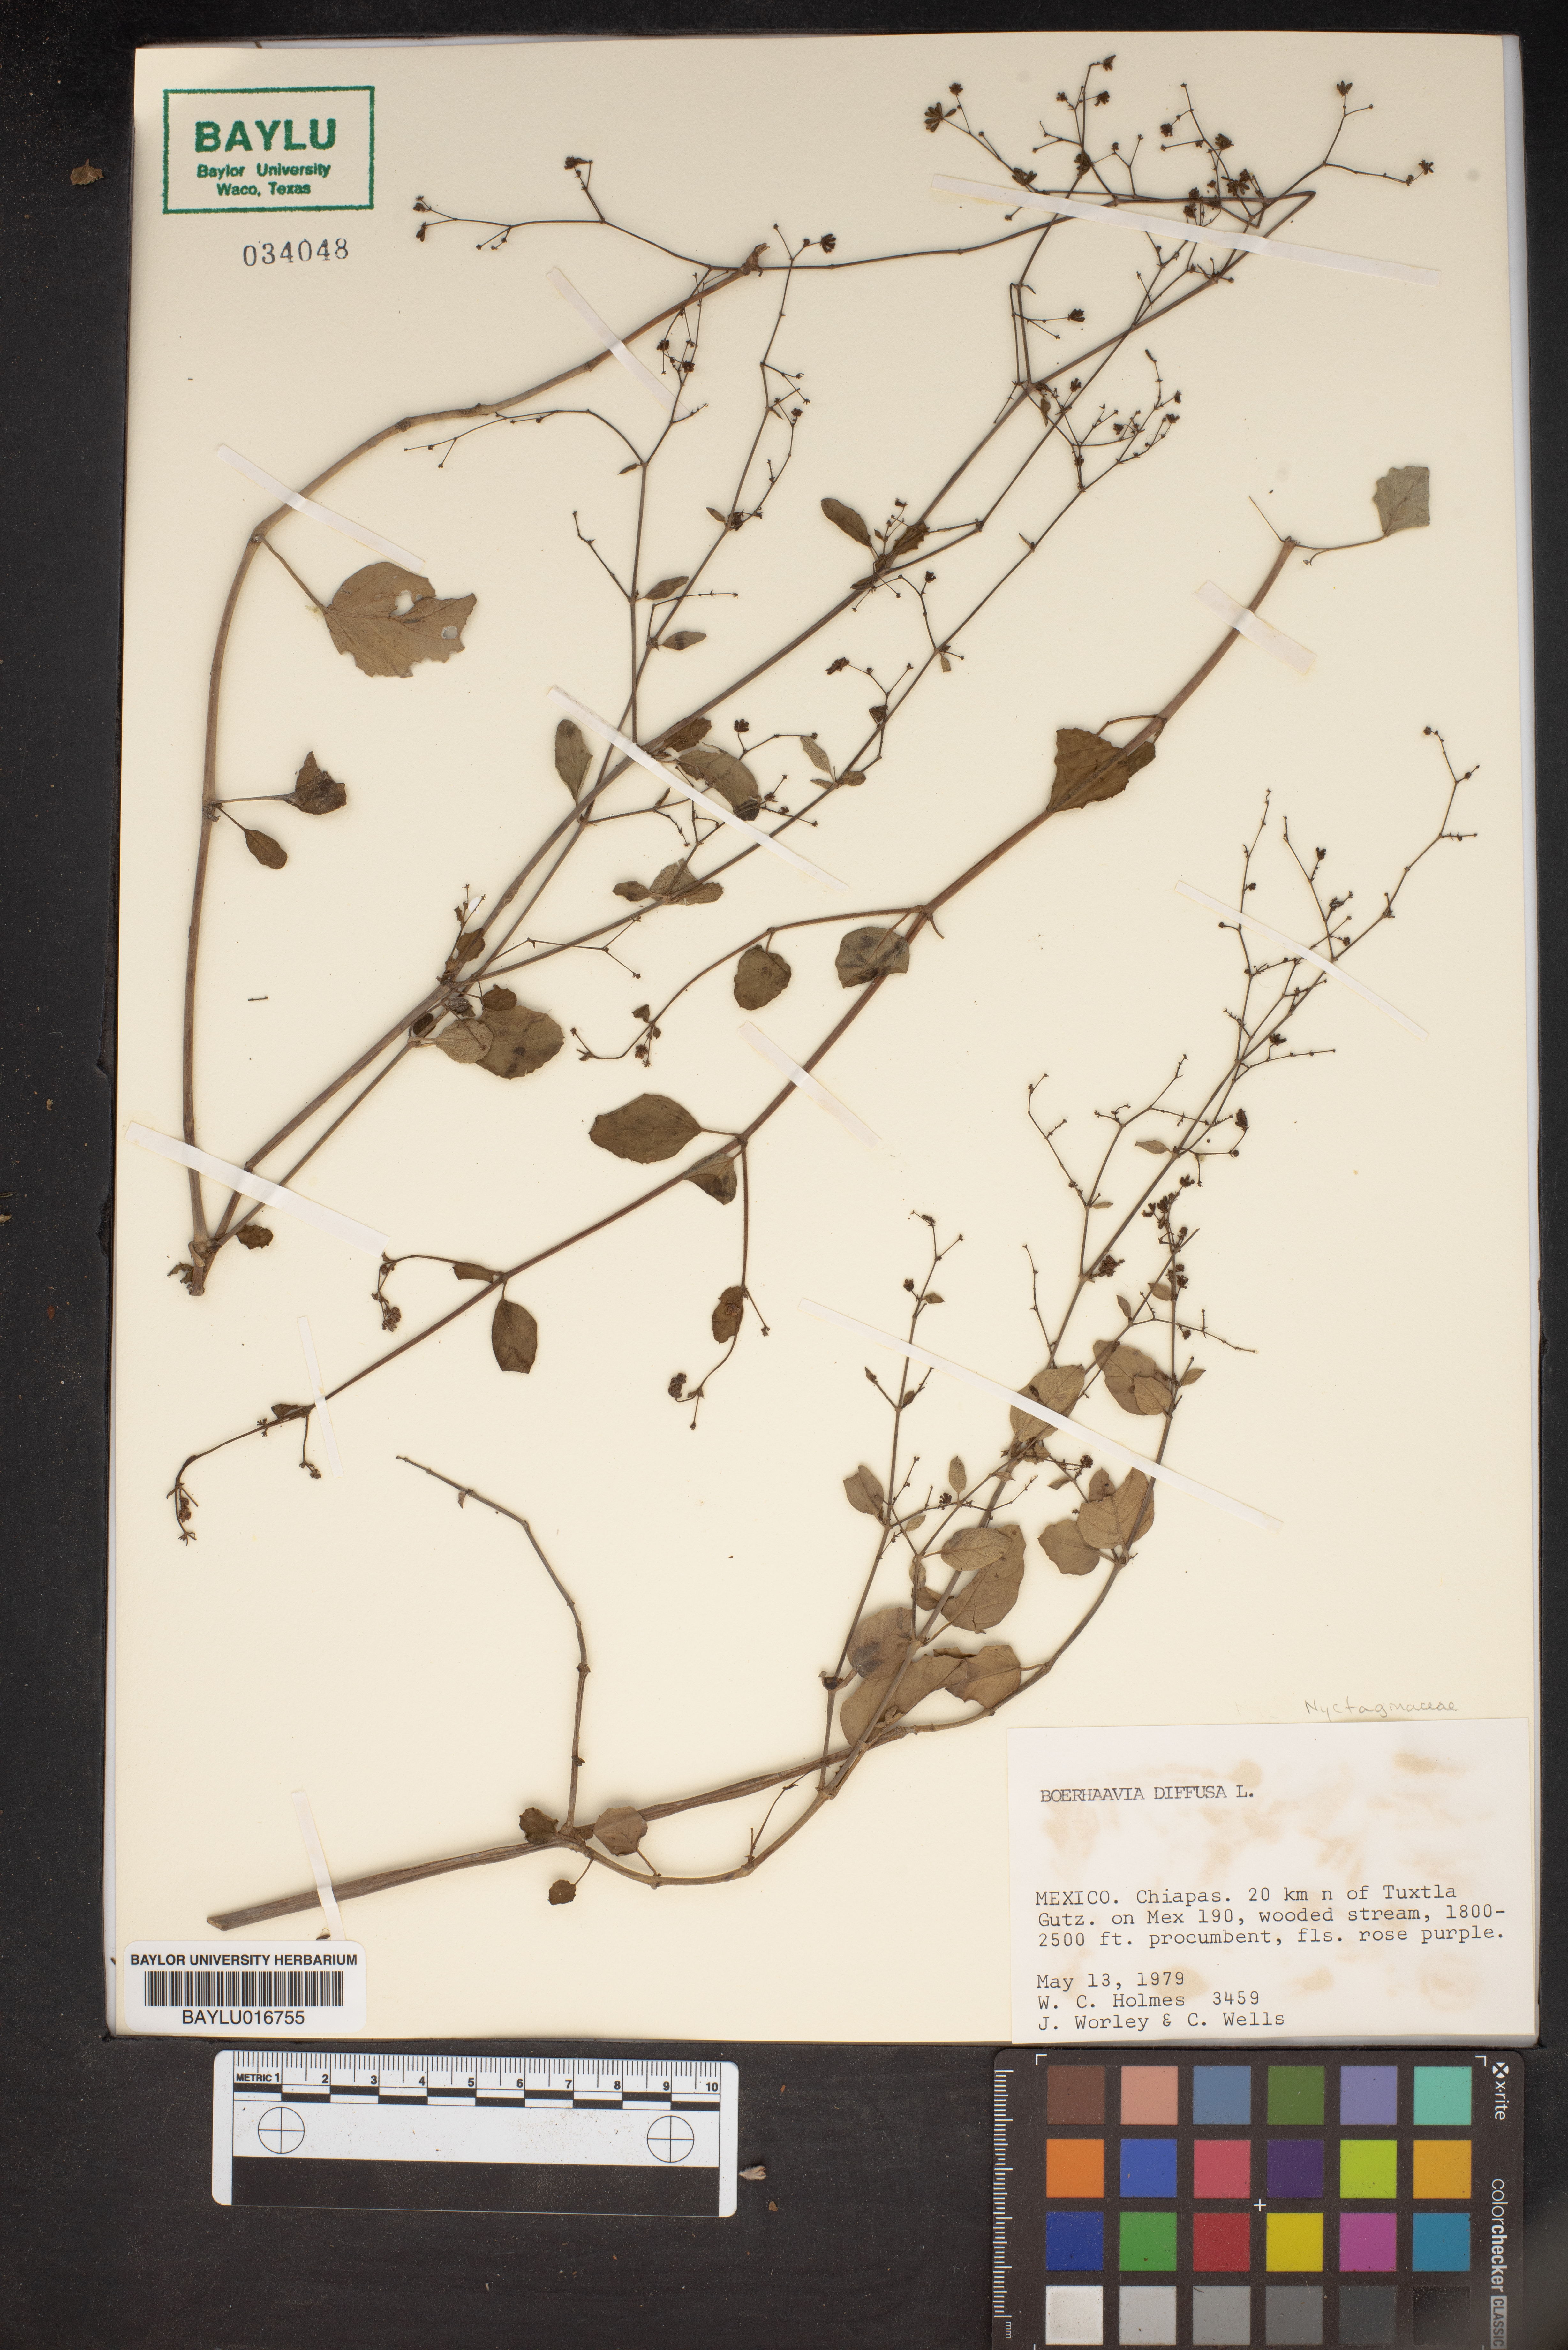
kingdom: Plantae
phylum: Tracheophyta
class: Magnoliopsida
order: Caryophyllales
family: Nyctaginaceae
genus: Boerhavia
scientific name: Boerhavia diffusa
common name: Red spiderling
